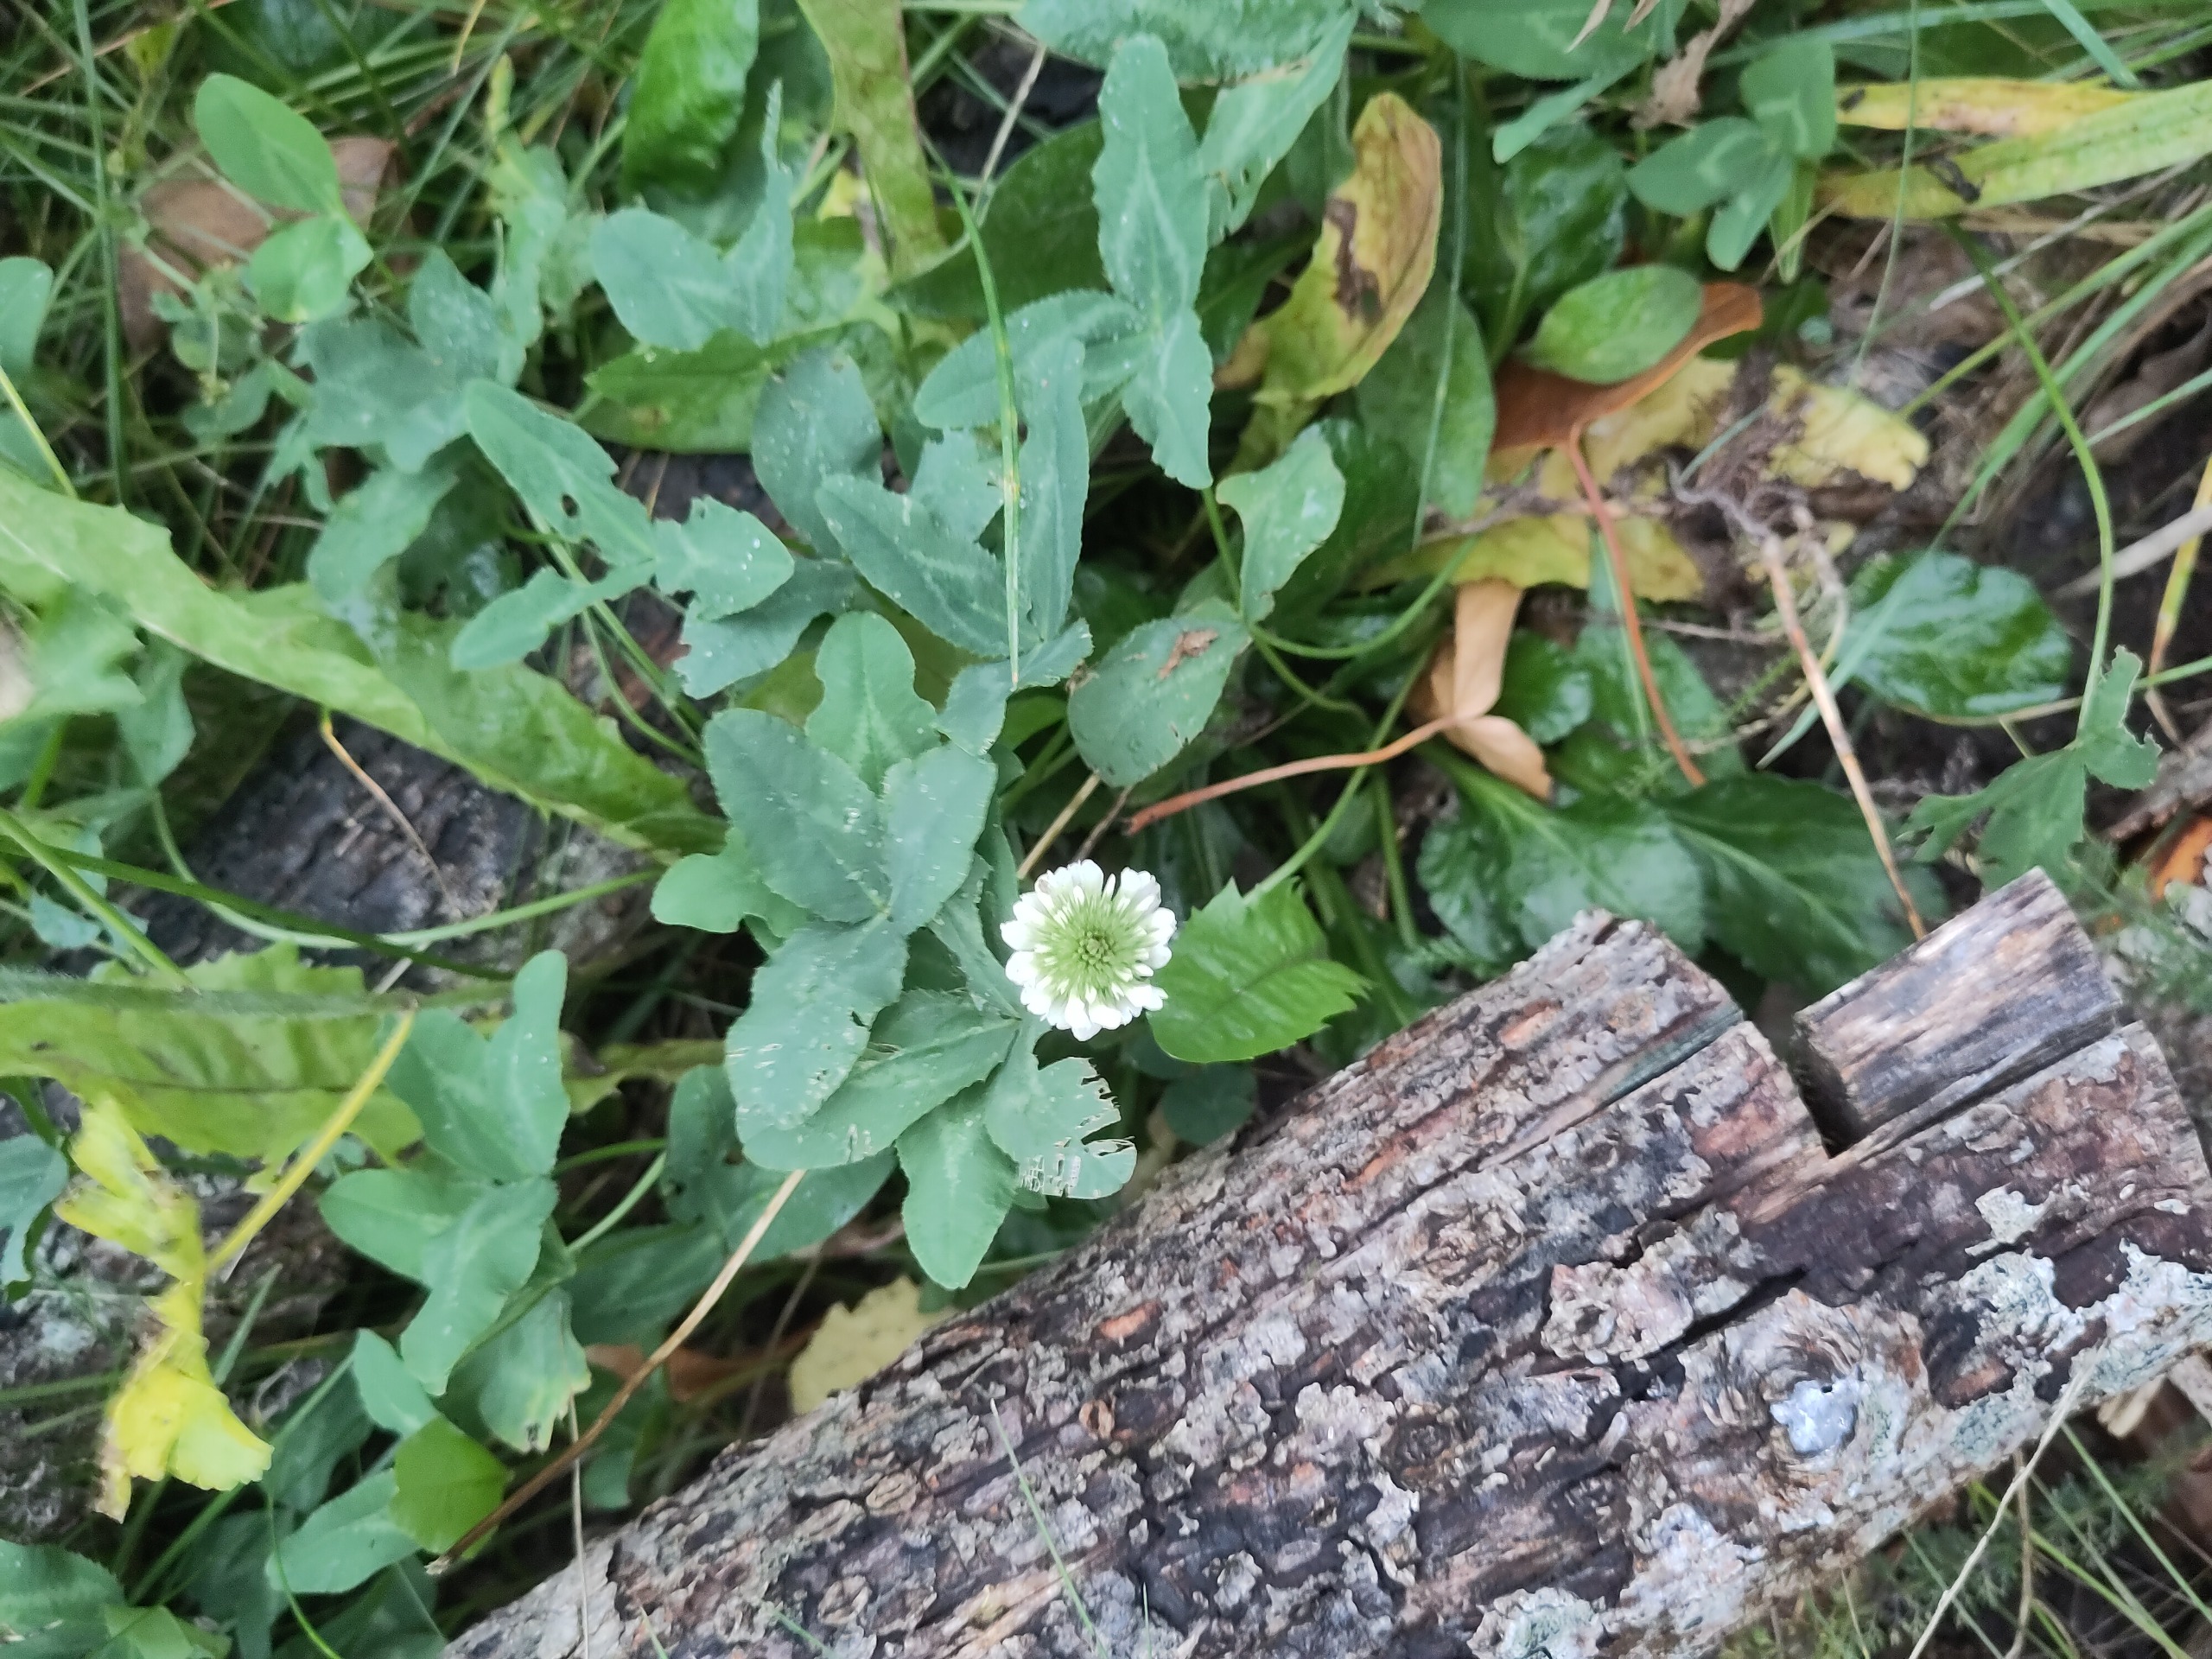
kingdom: Plantae
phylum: Tracheophyta
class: Magnoliopsida
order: Fabales
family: Fabaceae
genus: Trifolium
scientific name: Trifolium repens
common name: Hvid-kløver
